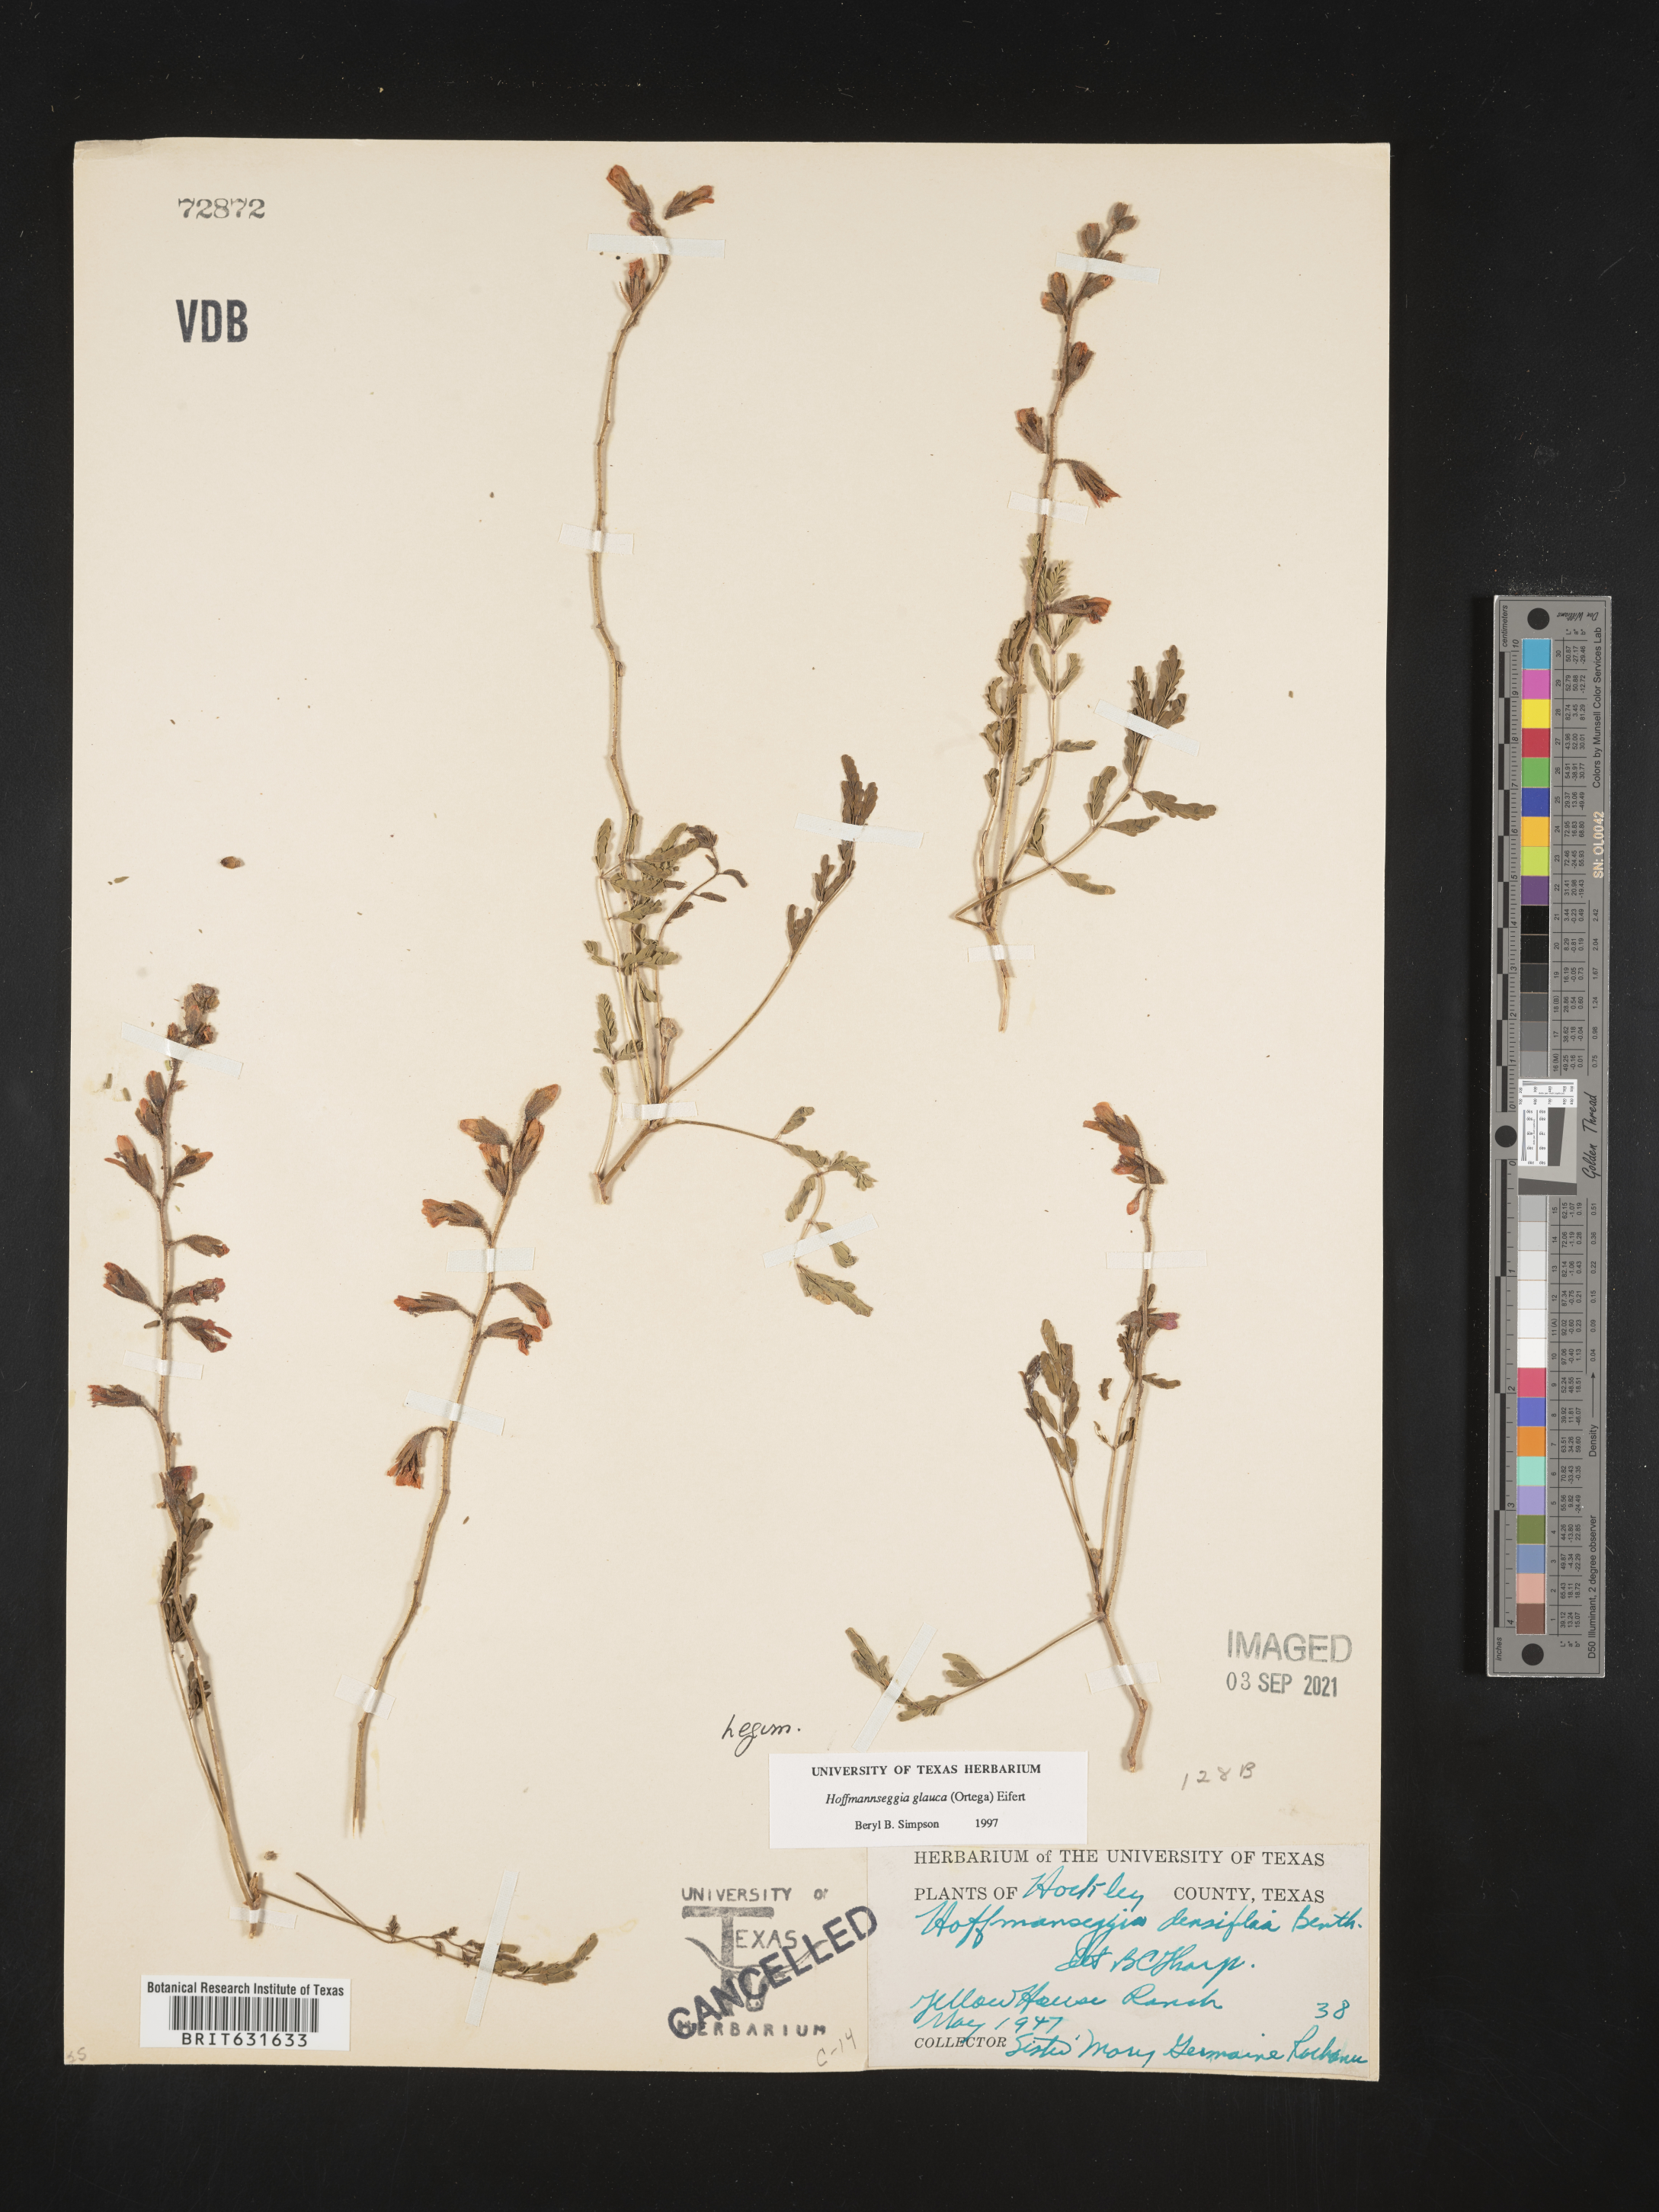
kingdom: Plantae
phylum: Tracheophyta
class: Magnoliopsida
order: Fabales
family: Fabaceae
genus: Hoffmannseggia
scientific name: Hoffmannseggia glauca
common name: Pignut
